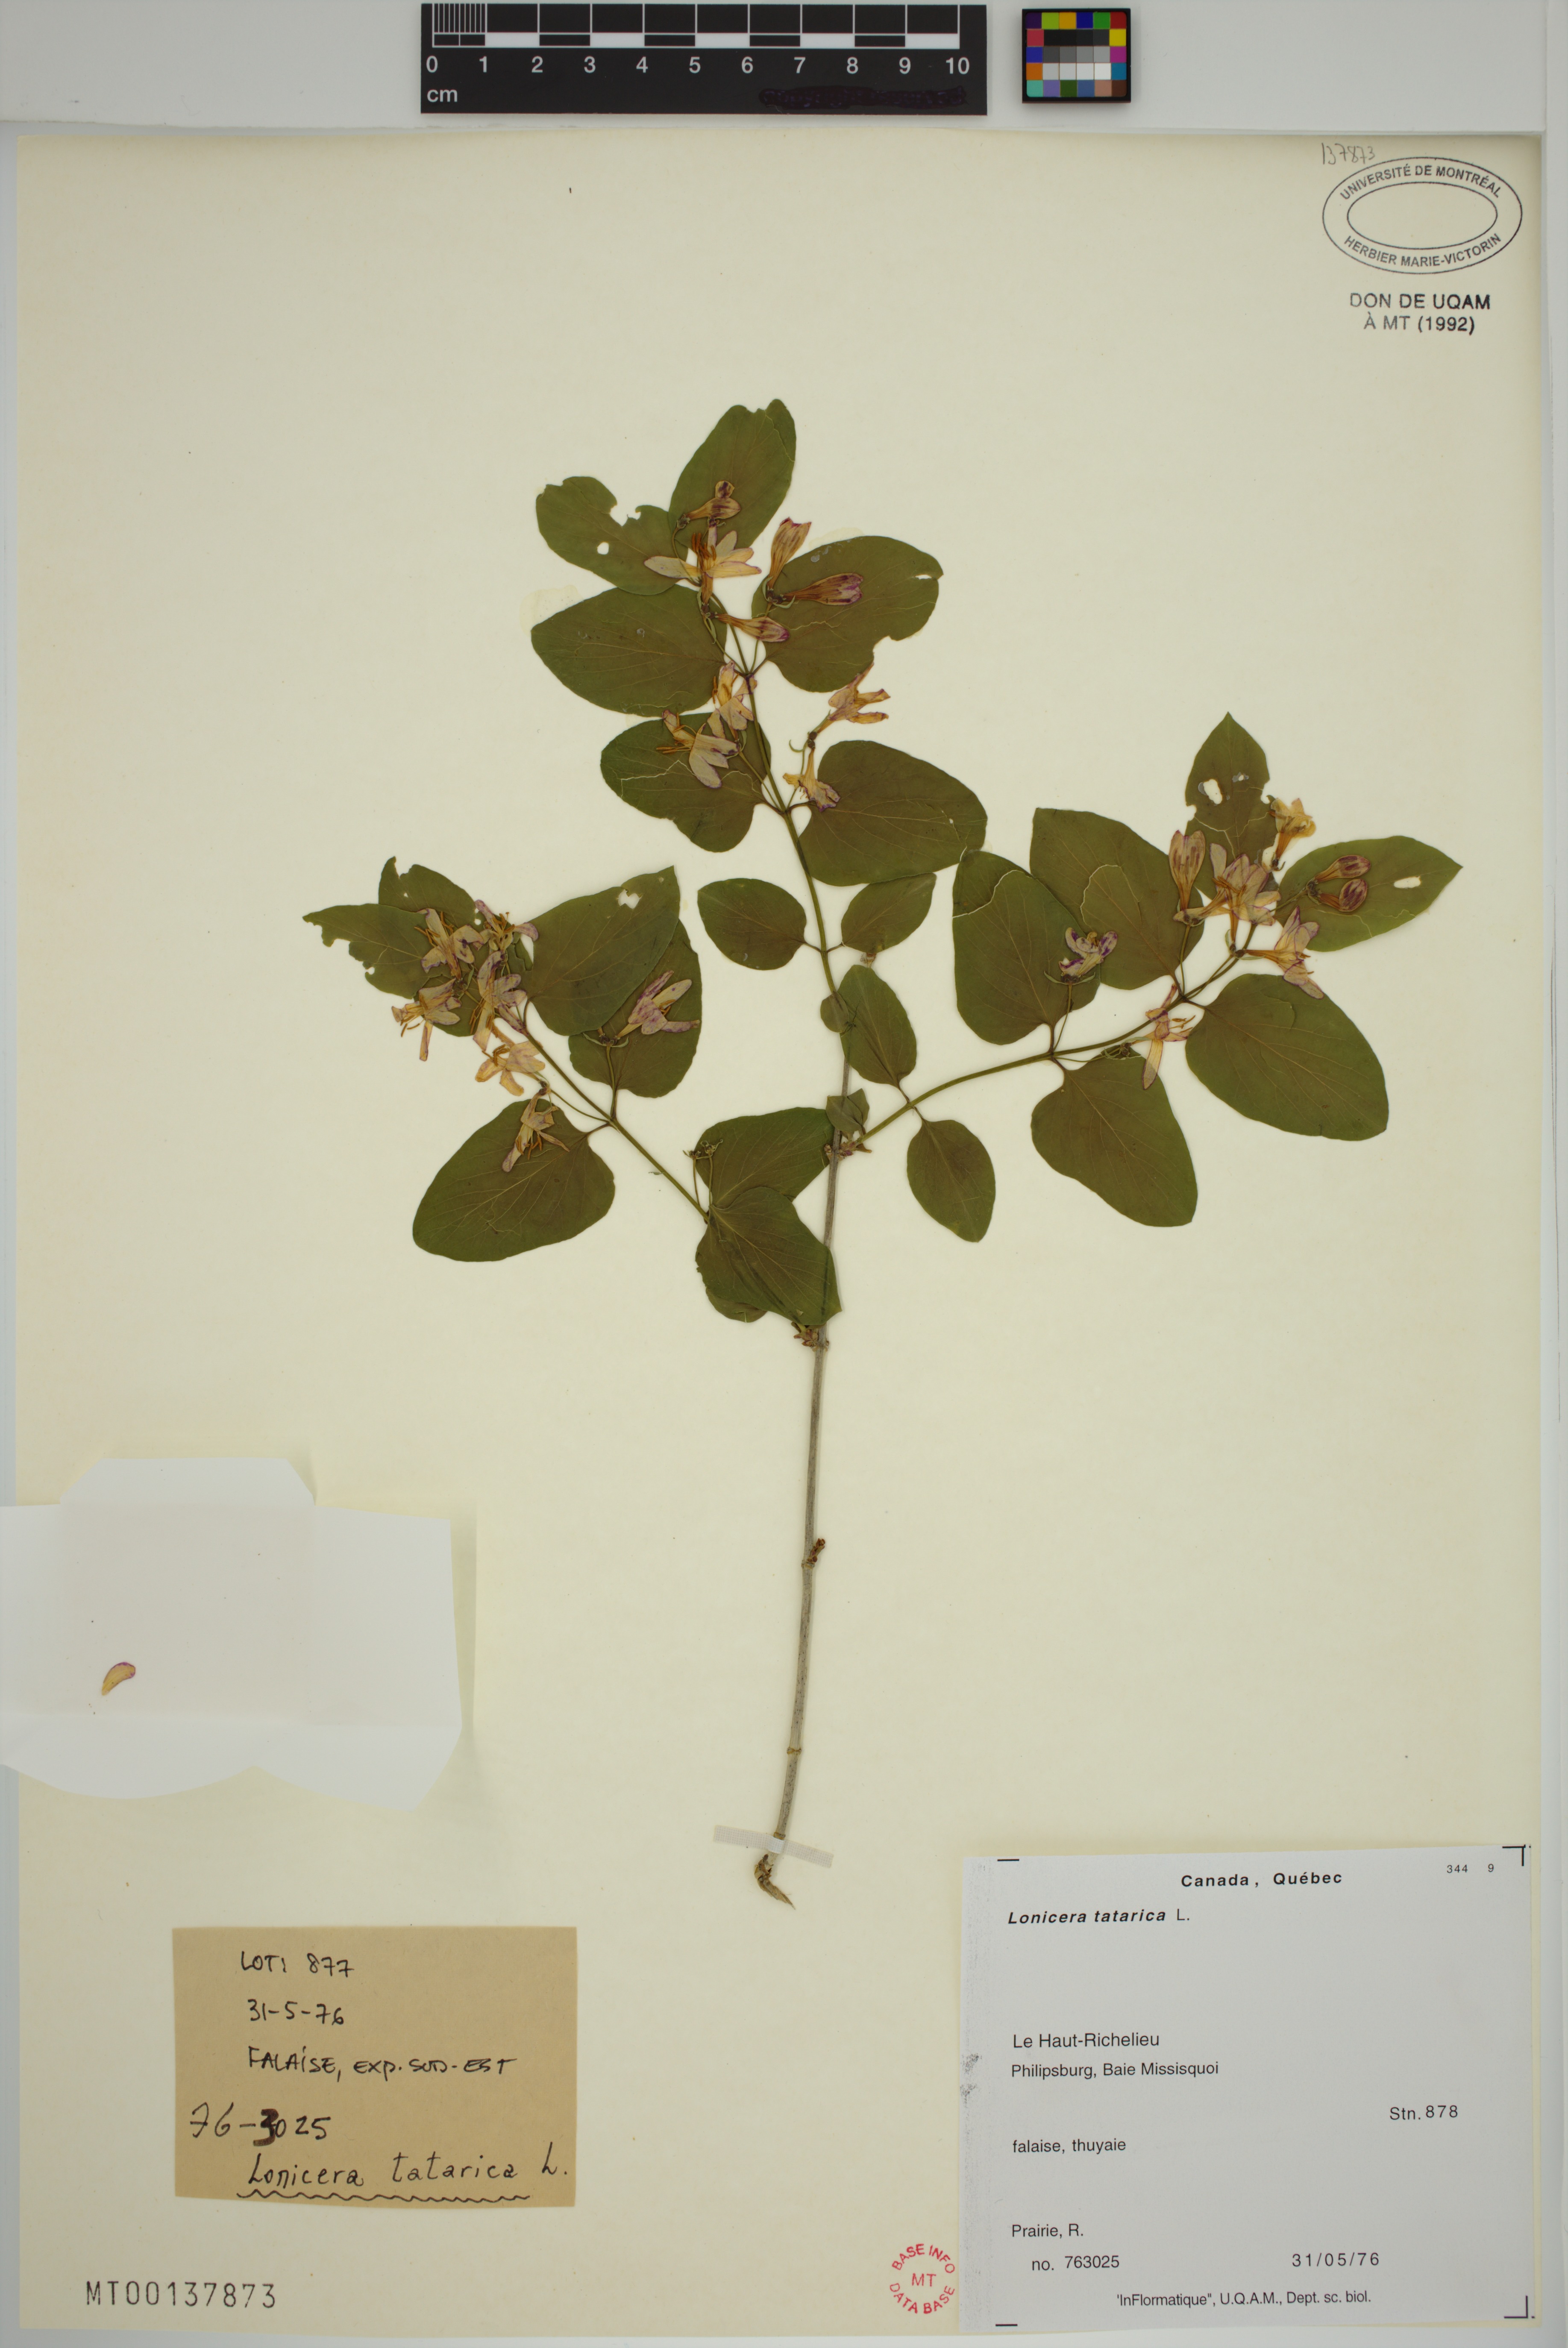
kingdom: Plantae
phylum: Tracheophyta
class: Magnoliopsida
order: Dipsacales
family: Caprifoliaceae
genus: Lonicera
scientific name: Lonicera tatarica
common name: Tatarian honeysuckle
